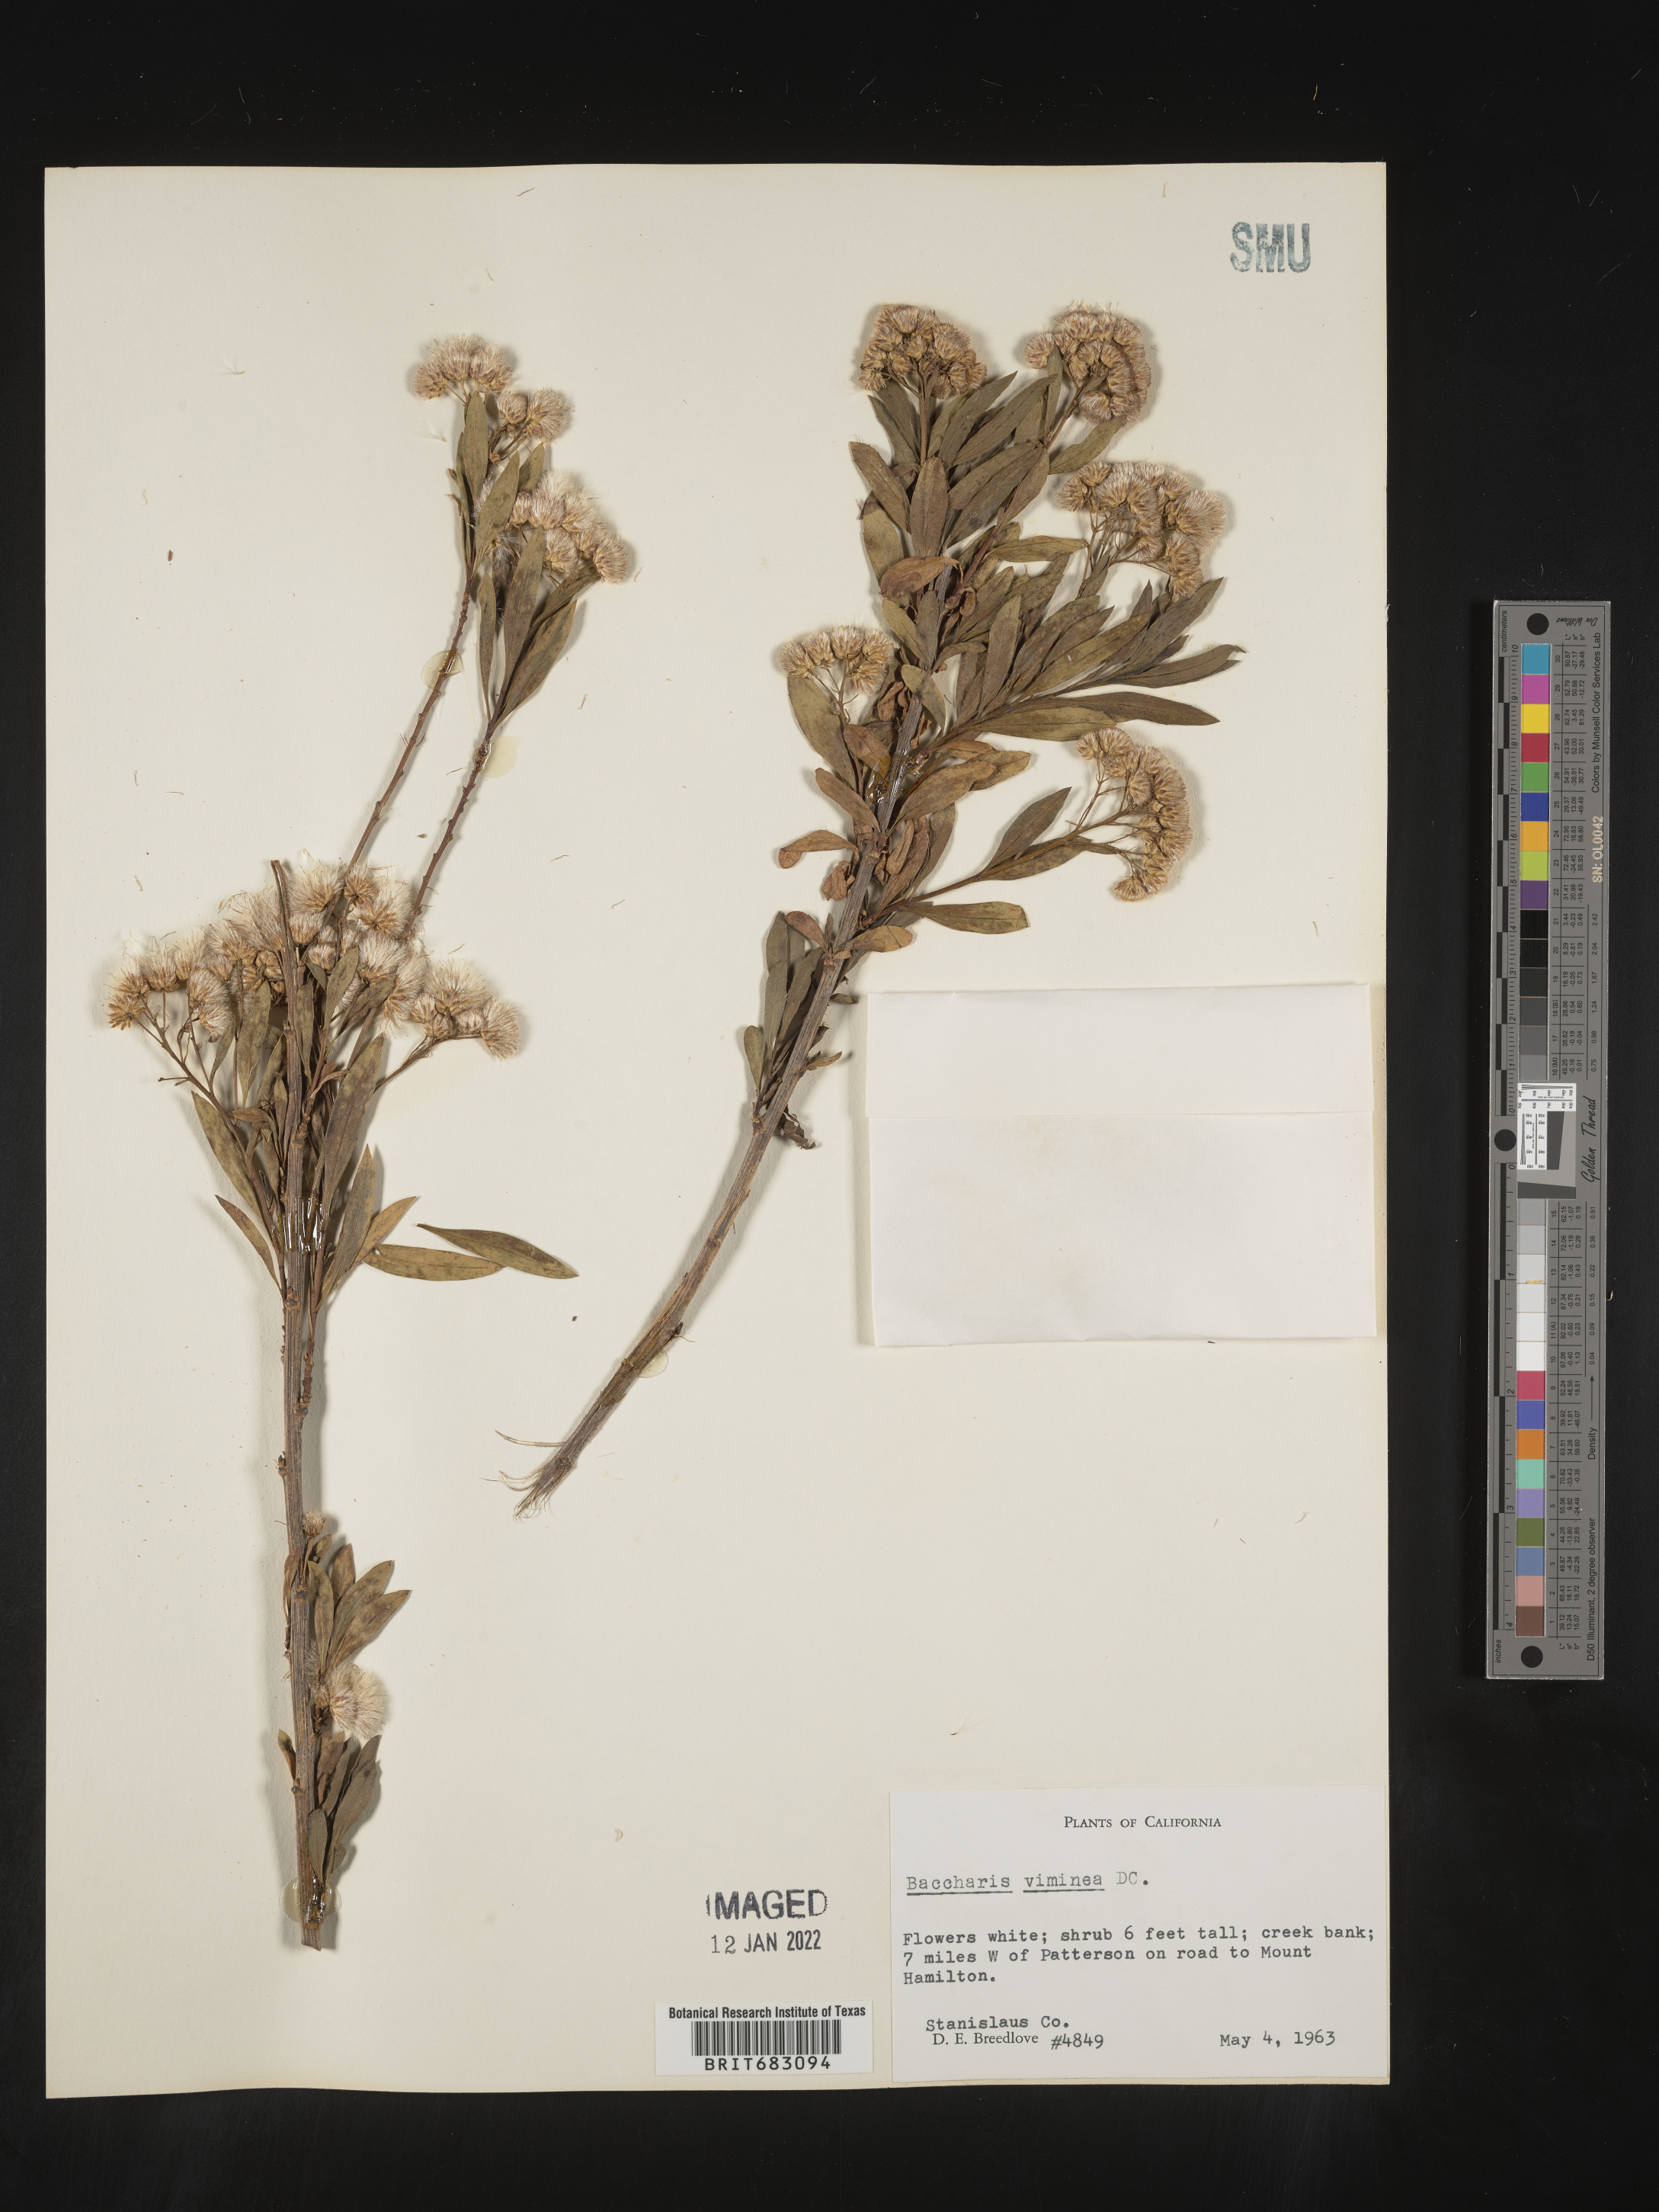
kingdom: Plantae
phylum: Tracheophyta
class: Magnoliopsida
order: Asterales
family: Asteraceae
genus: Baccharis
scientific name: Baccharis salicifolia
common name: Sticky baccharis
